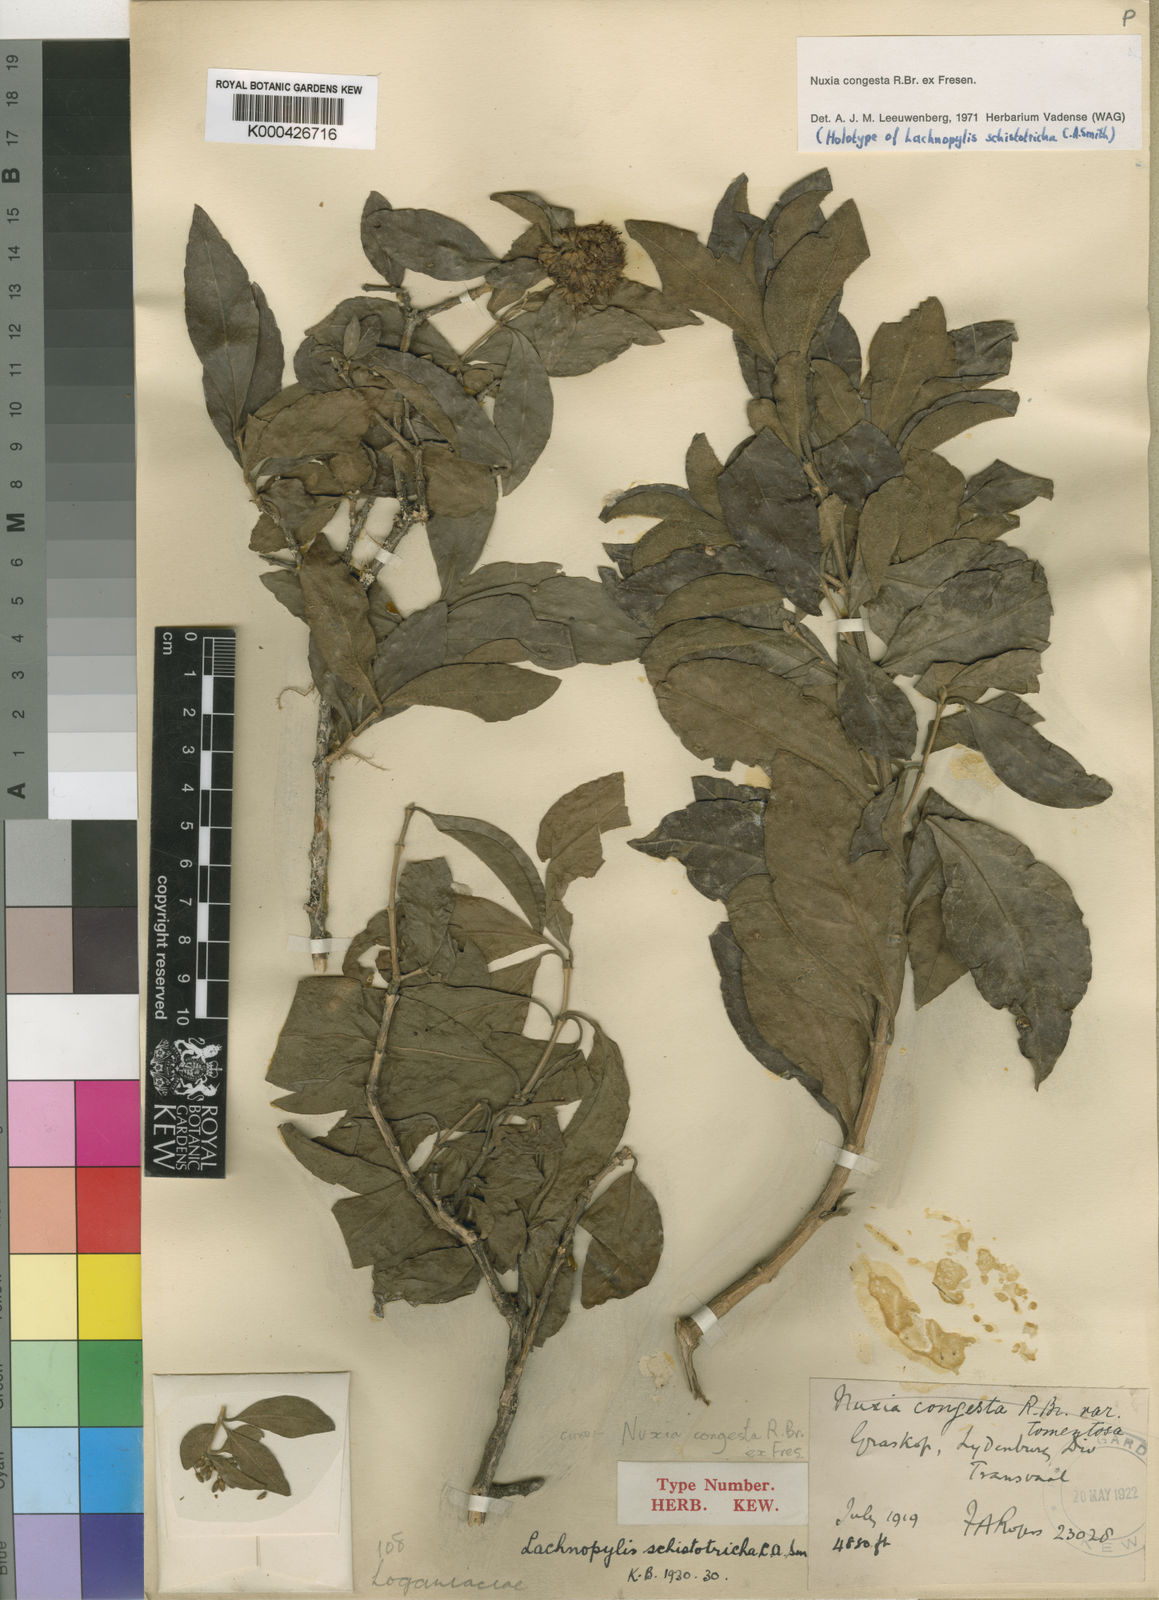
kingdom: Plantae
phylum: Tracheophyta
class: Magnoliopsida
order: Lamiales
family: Stilbaceae
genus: Nuxia
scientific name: Nuxia congesta
